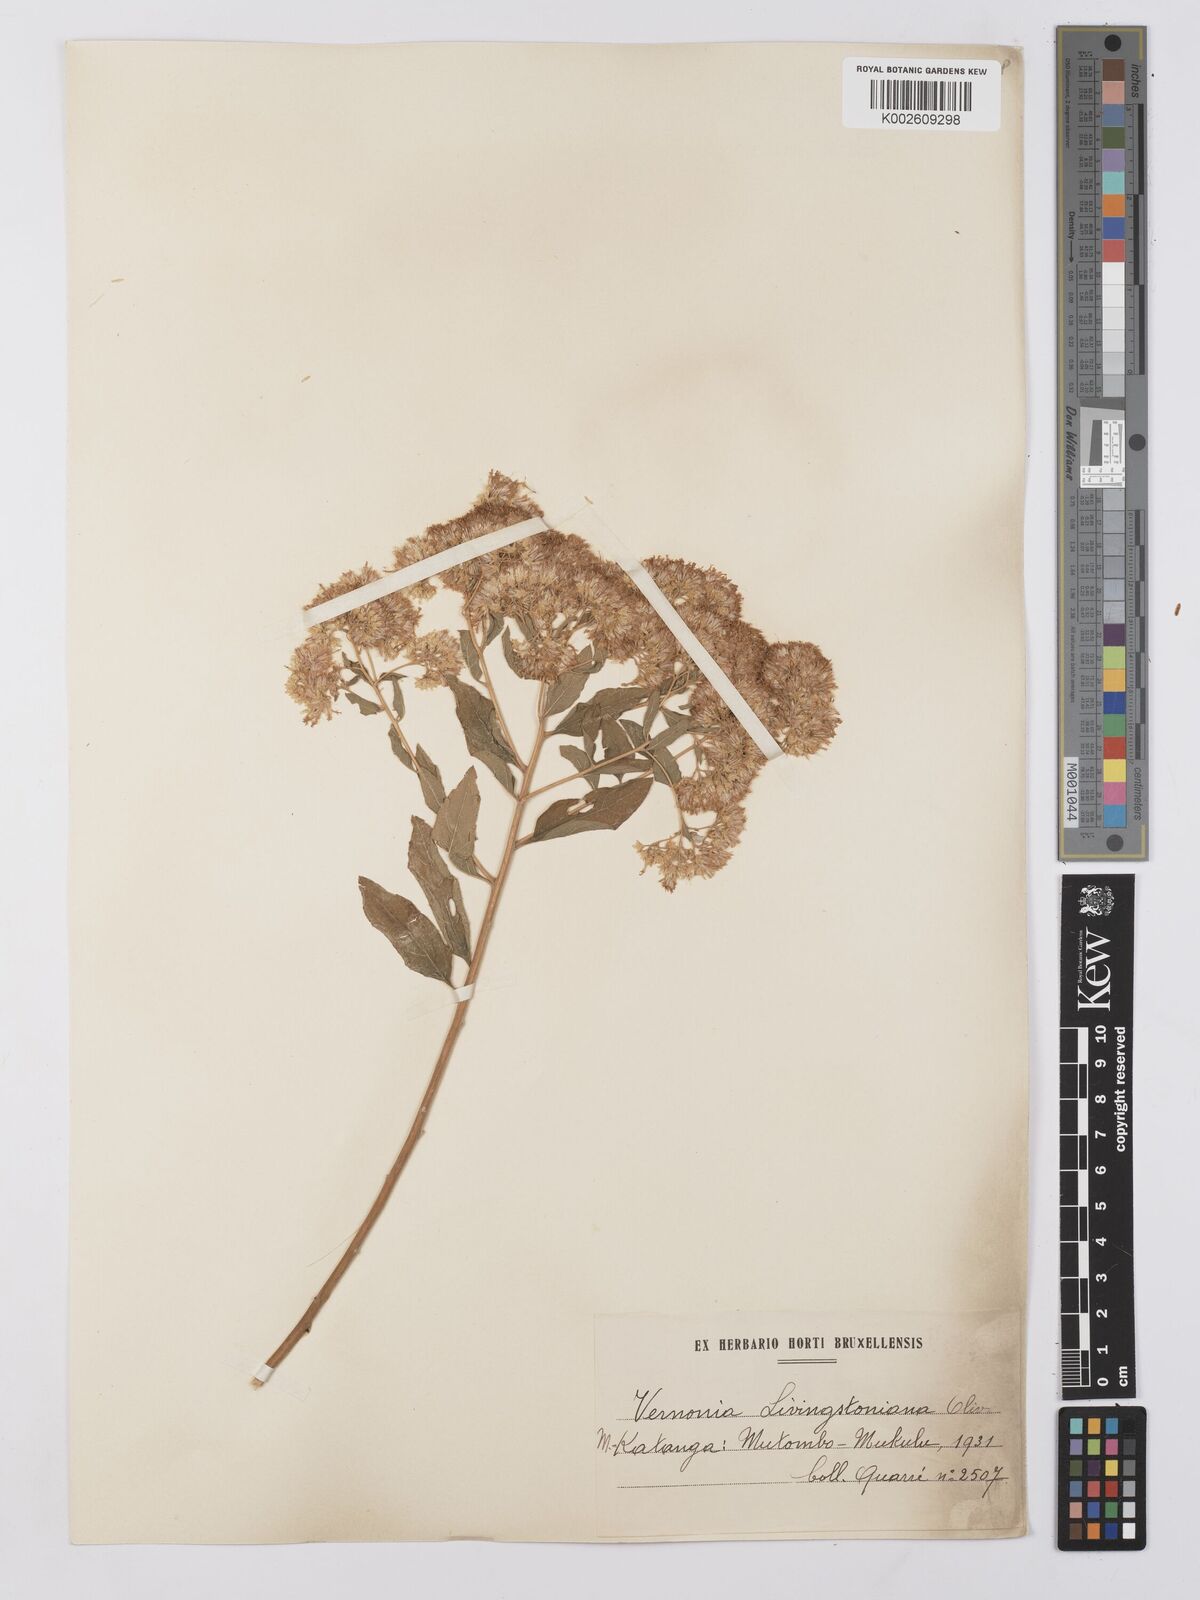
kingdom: Plantae
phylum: Tracheophyta
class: Magnoliopsida
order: Asterales
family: Asteraceae
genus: Gymnanthemum
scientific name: Gymnanthemum thomsonianum
